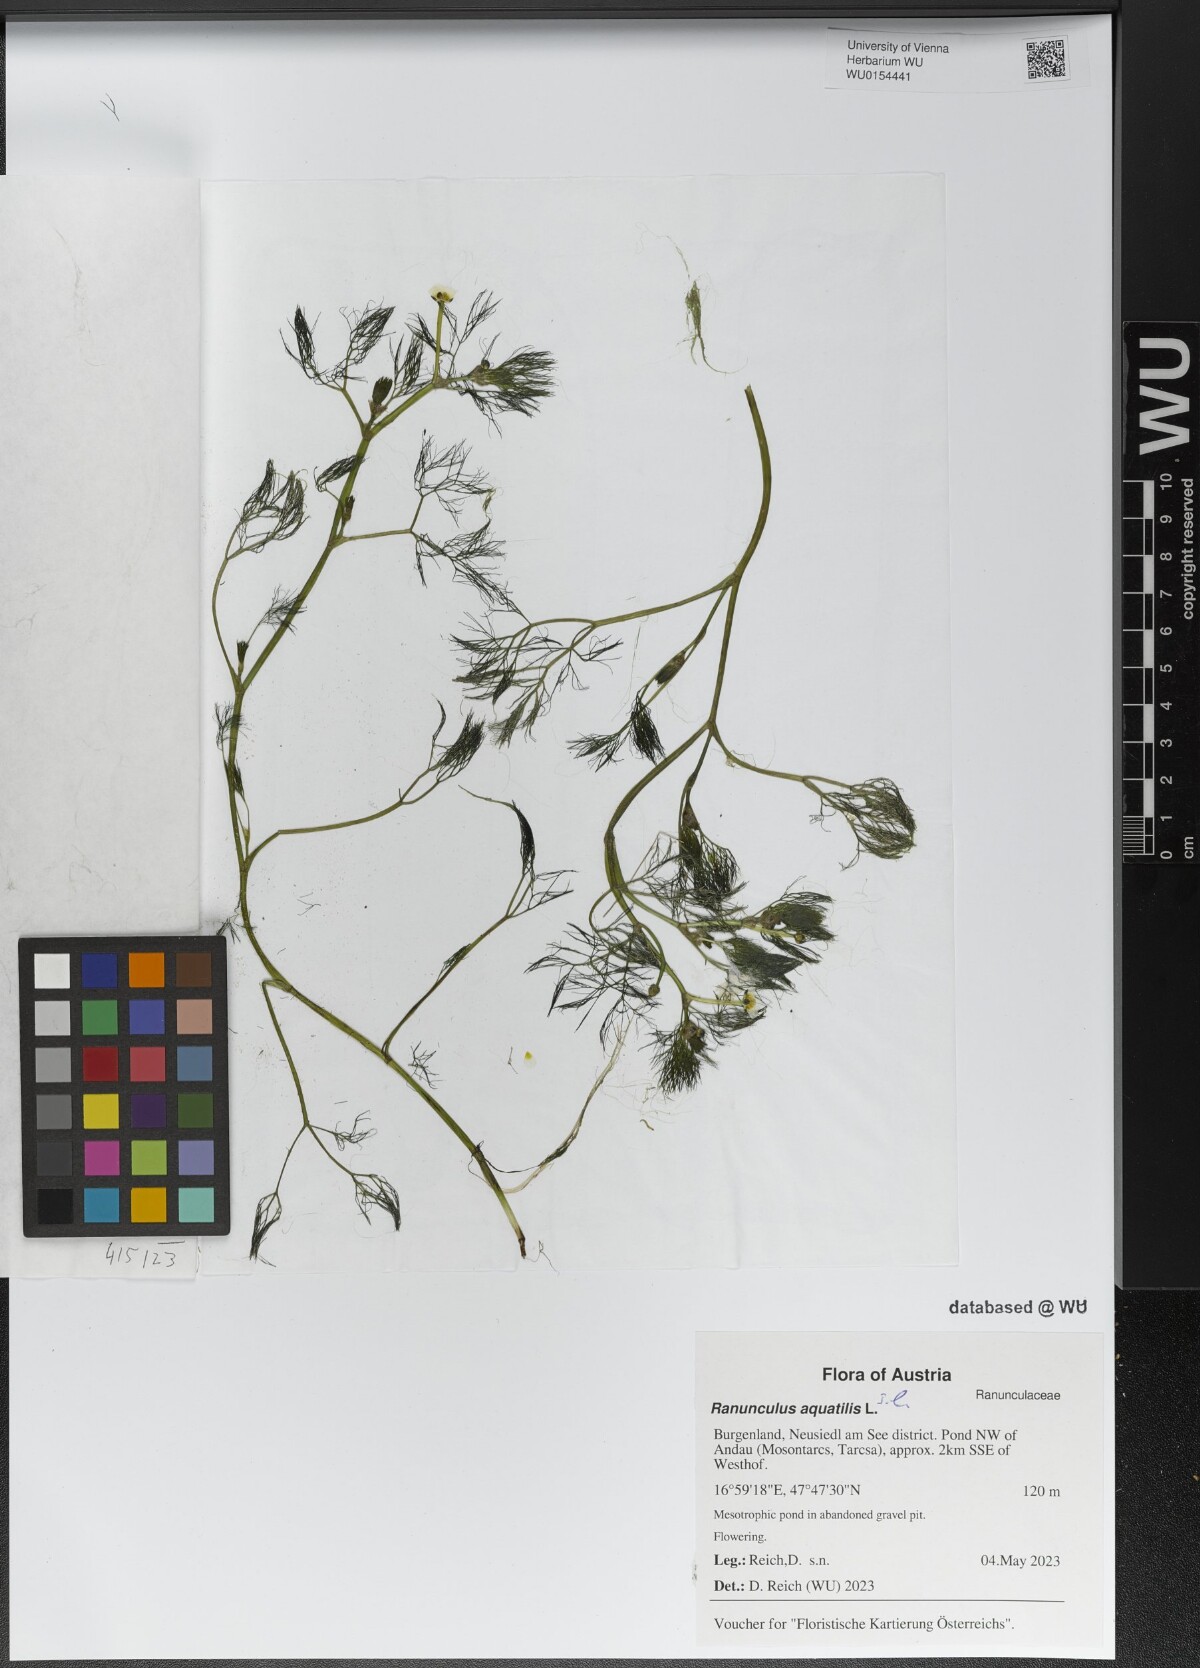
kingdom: Plantae
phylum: Tracheophyta
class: Magnoliopsida
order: Ranunculales
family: Ranunculaceae
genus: Ranunculus
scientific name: Ranunculus aquatilis
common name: Common water-crowfoot
